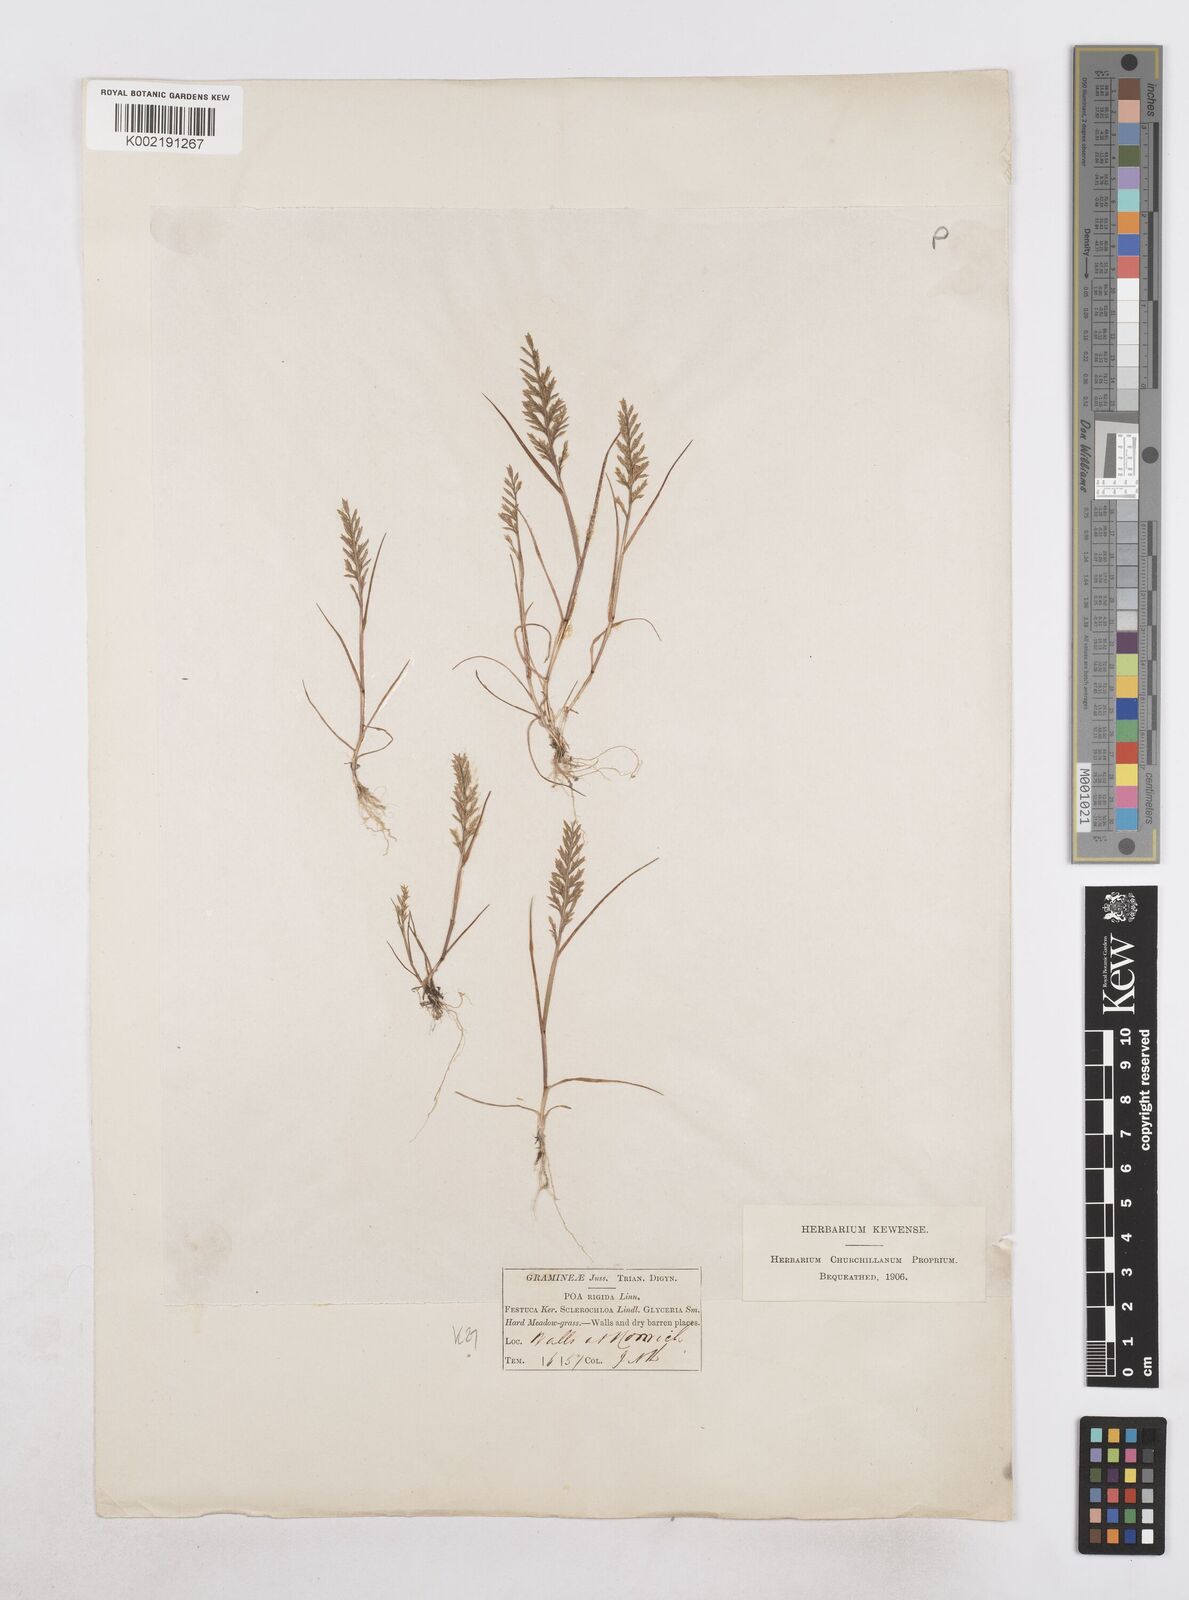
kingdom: Plantae
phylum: Tracheophyta
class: Liliopsida
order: Poales
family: Poaceae
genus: Catapodium
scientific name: Catapodium rigidum
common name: Fern-grass
